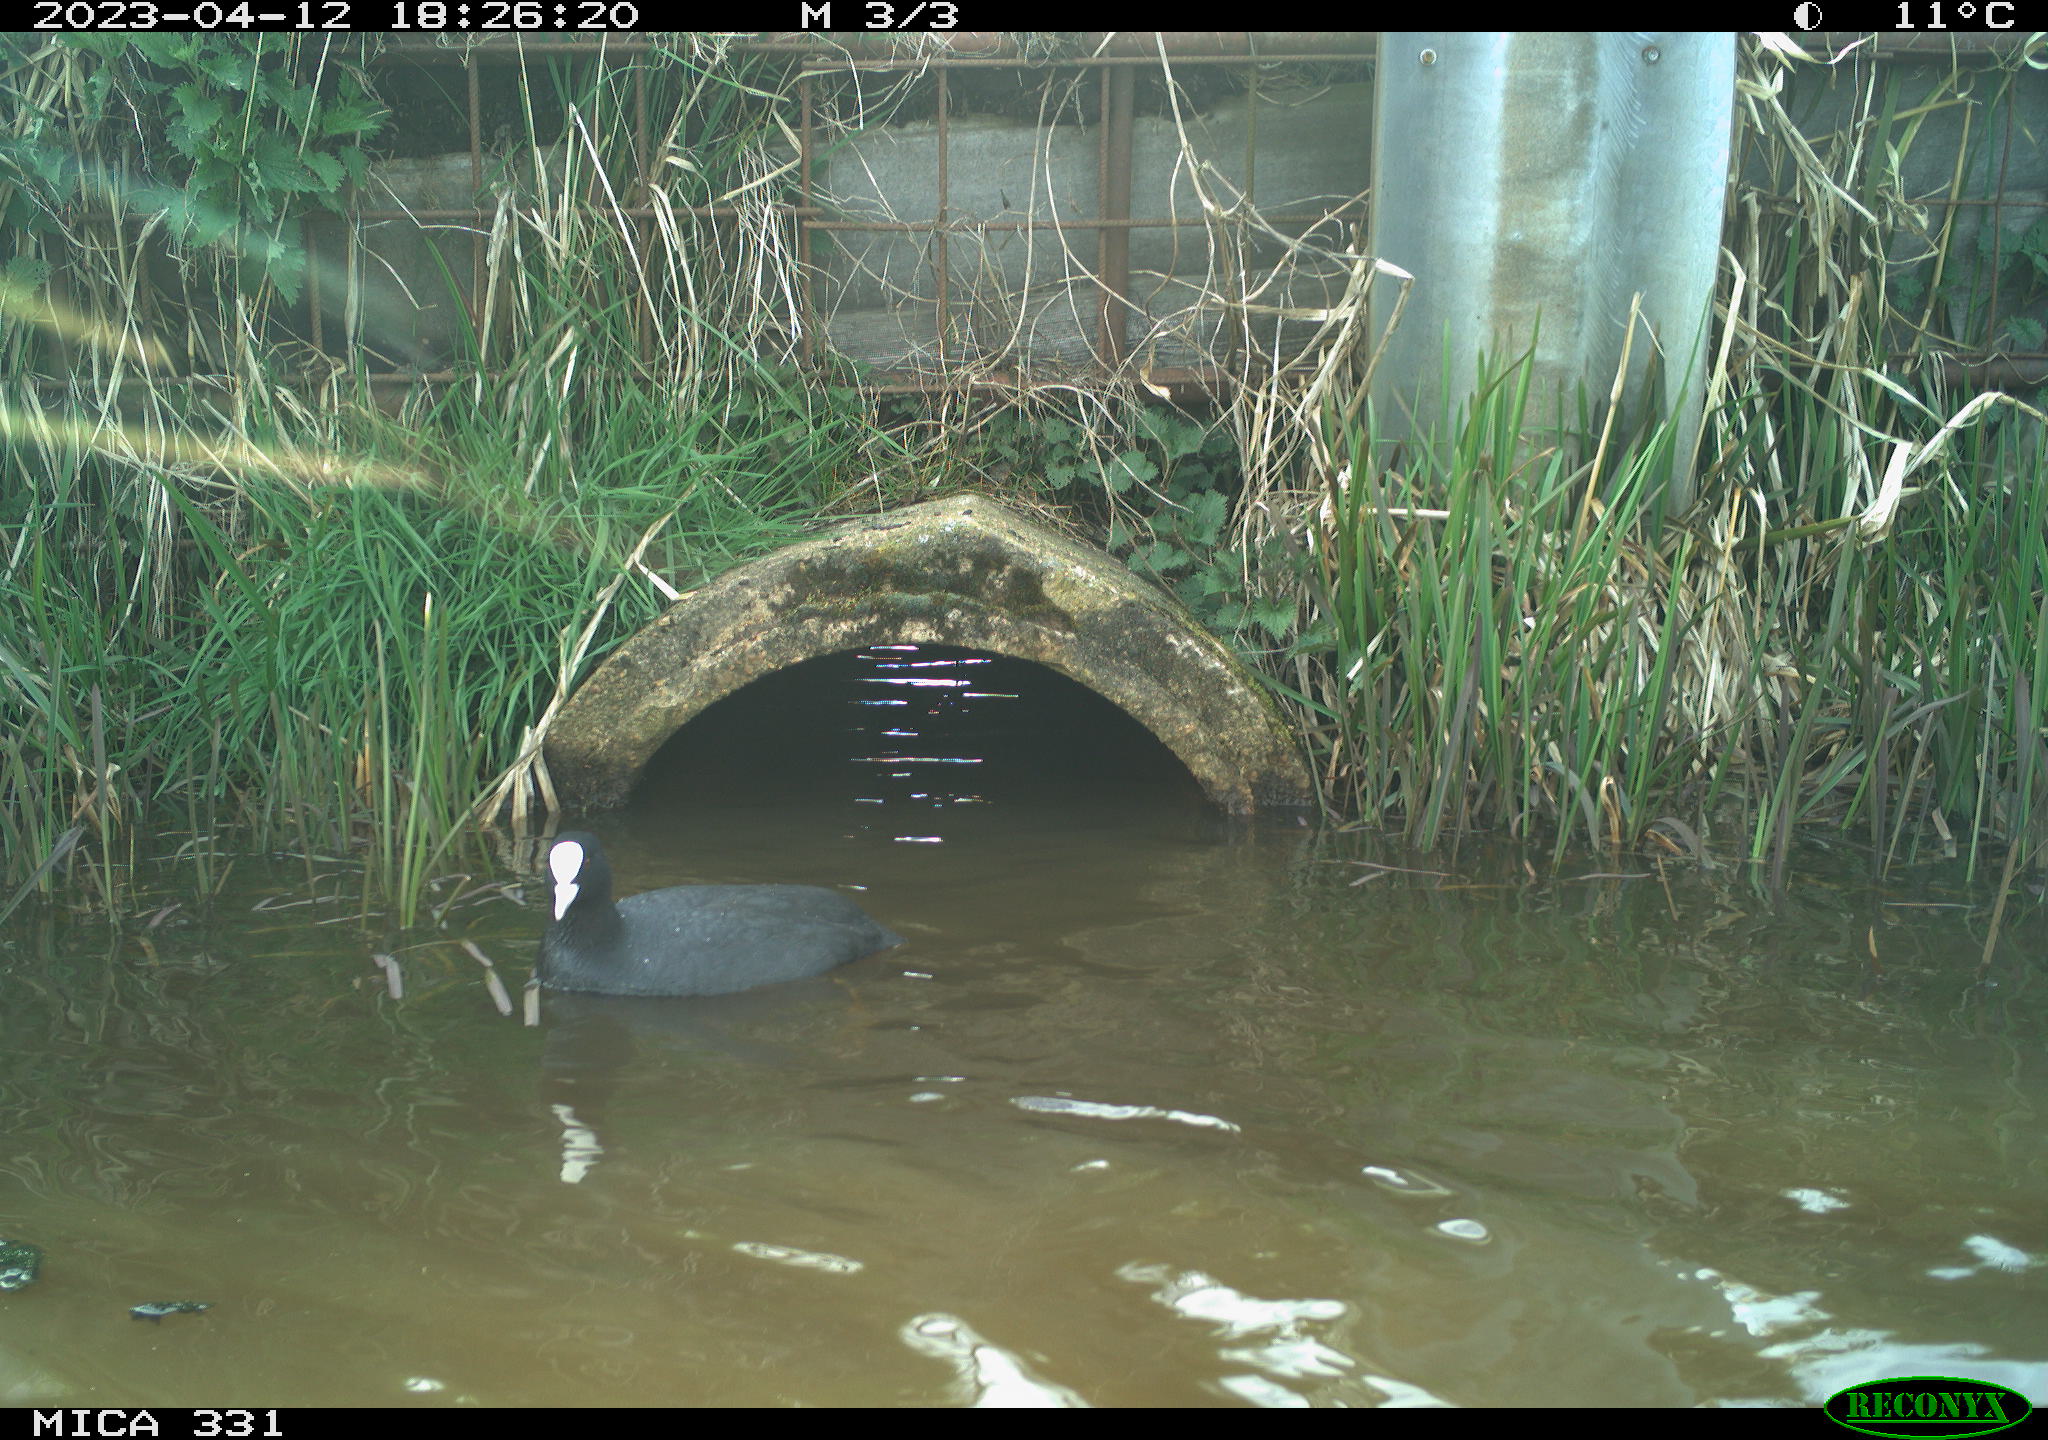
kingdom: Animalia
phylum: Chordata
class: Aves
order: Gruiformes
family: Rallidae
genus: Gallinula
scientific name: Gallinula chloropus
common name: Common moorhen
